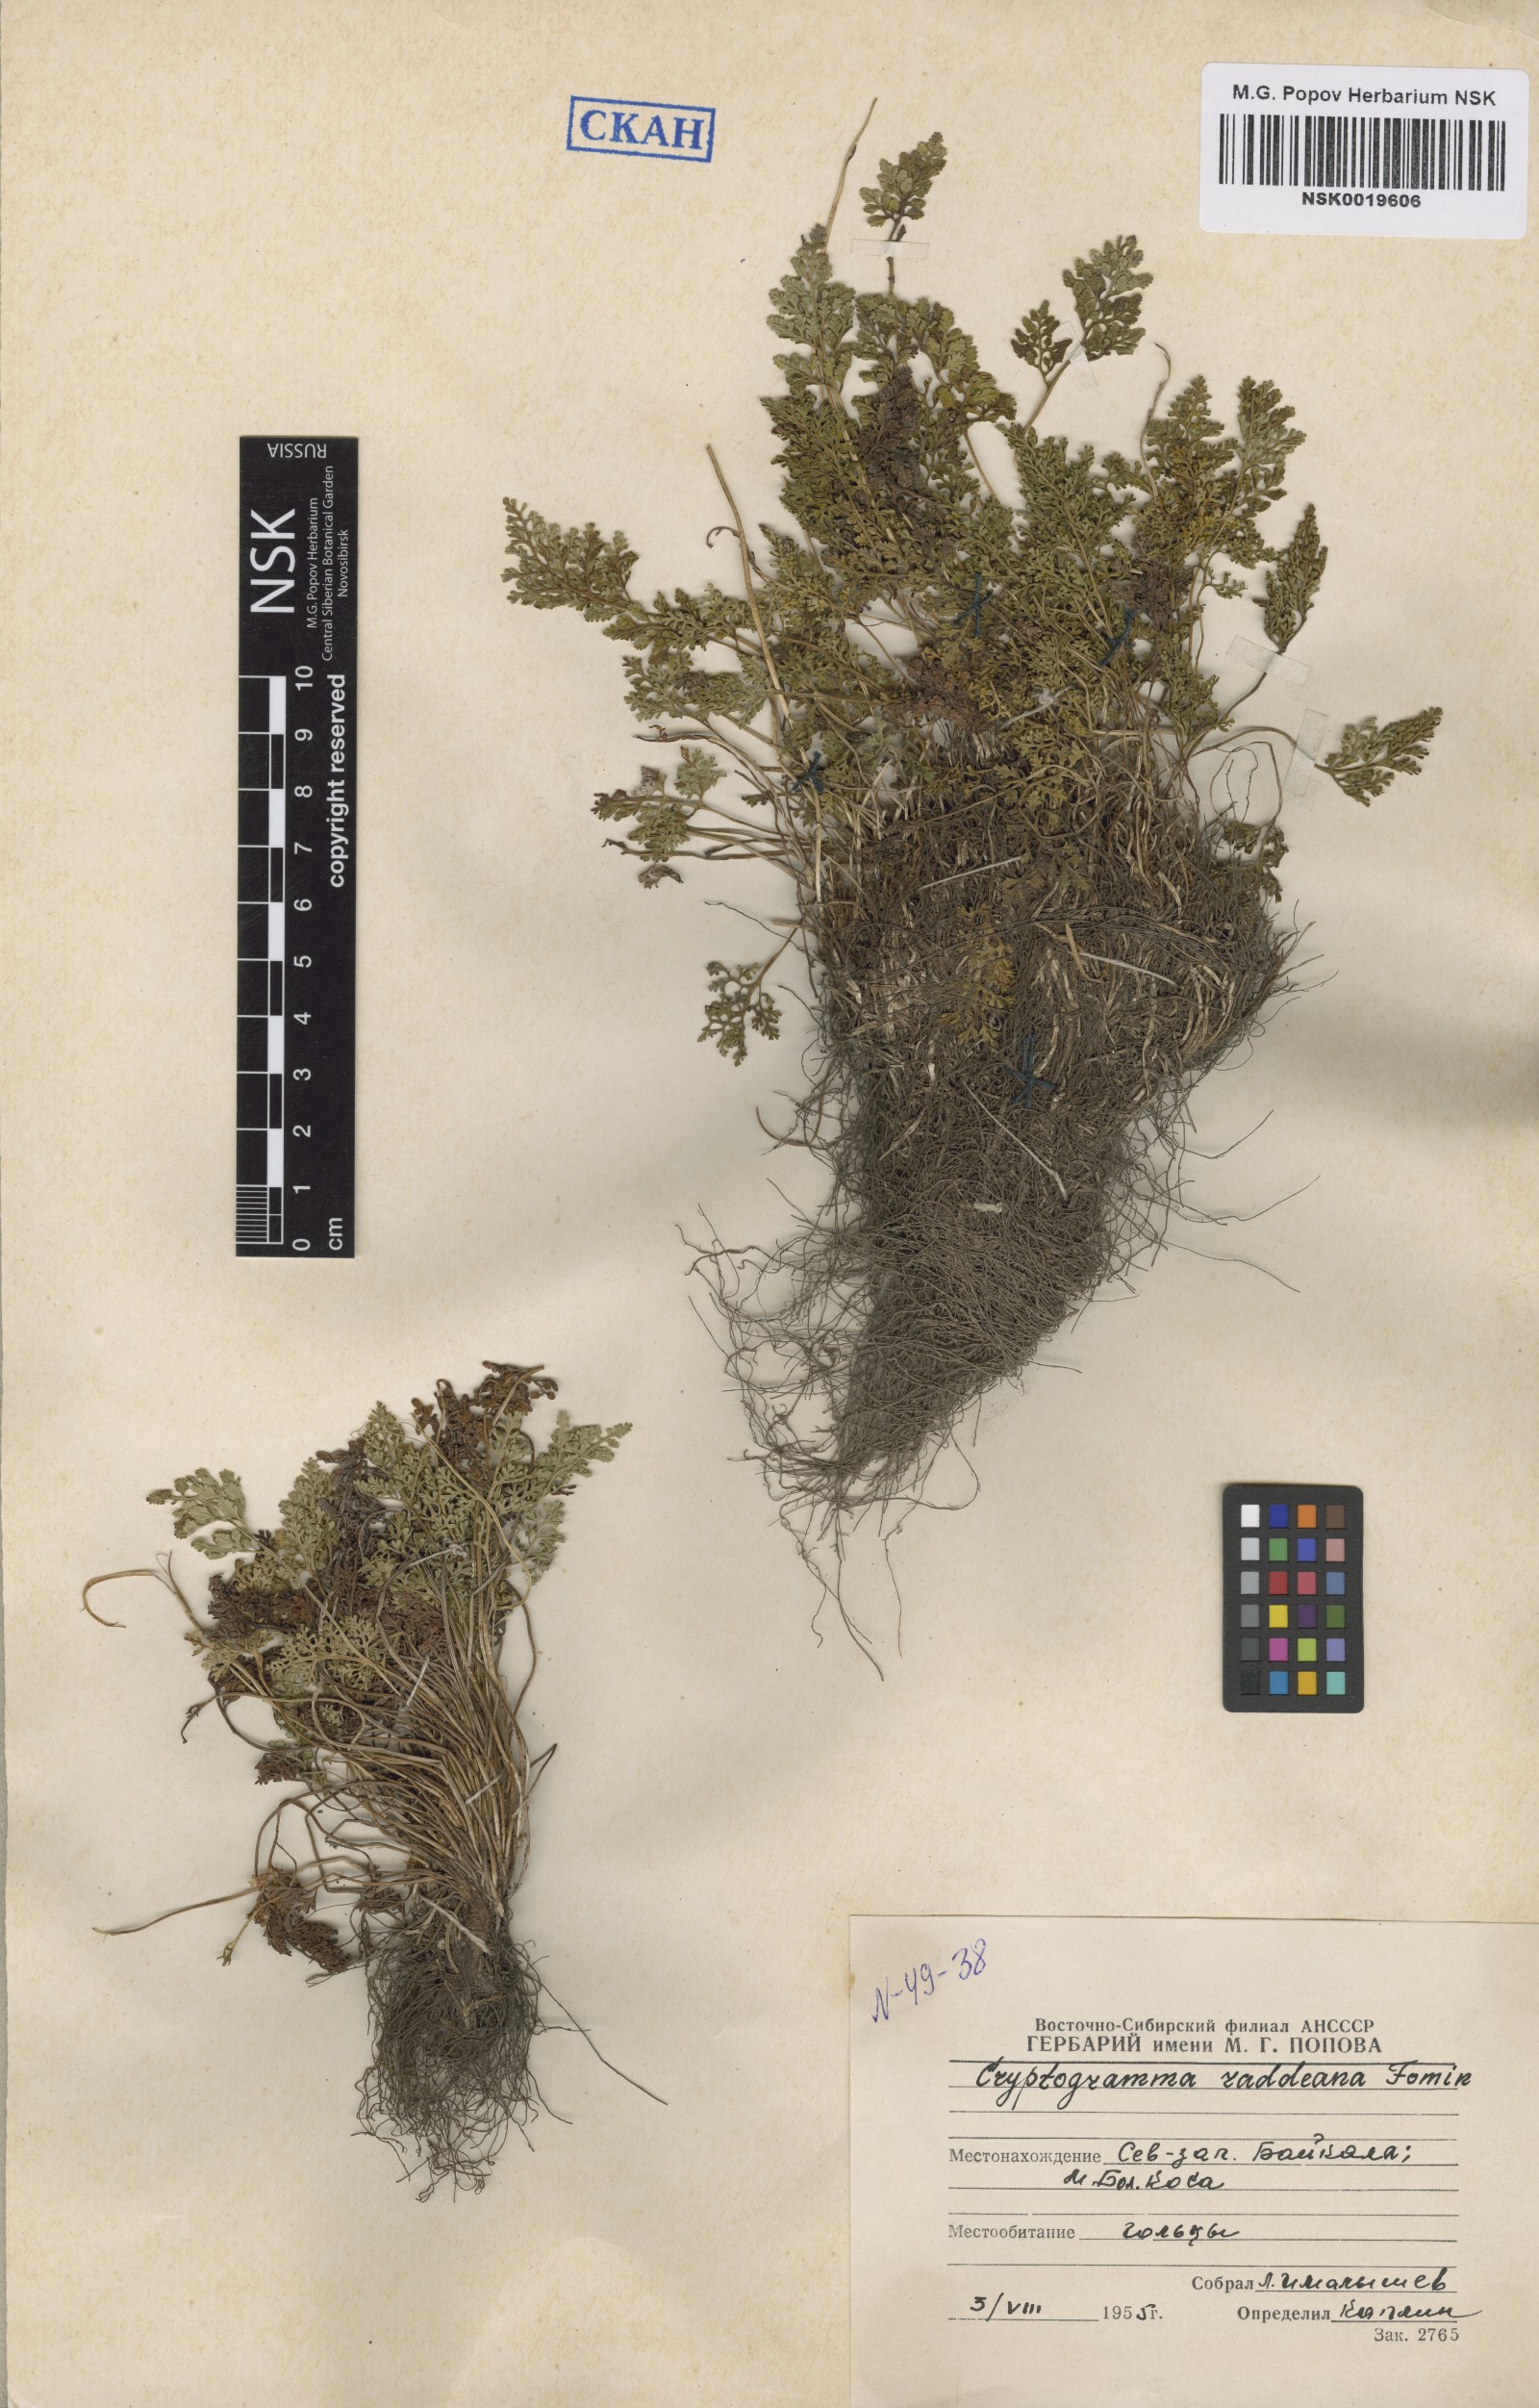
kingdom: Plantae
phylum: Tracheophyta
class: Polypodiopsida
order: Polypodiales
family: Pteridaceae
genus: Cryptogramma
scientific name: Cryptogramma brunoniana
